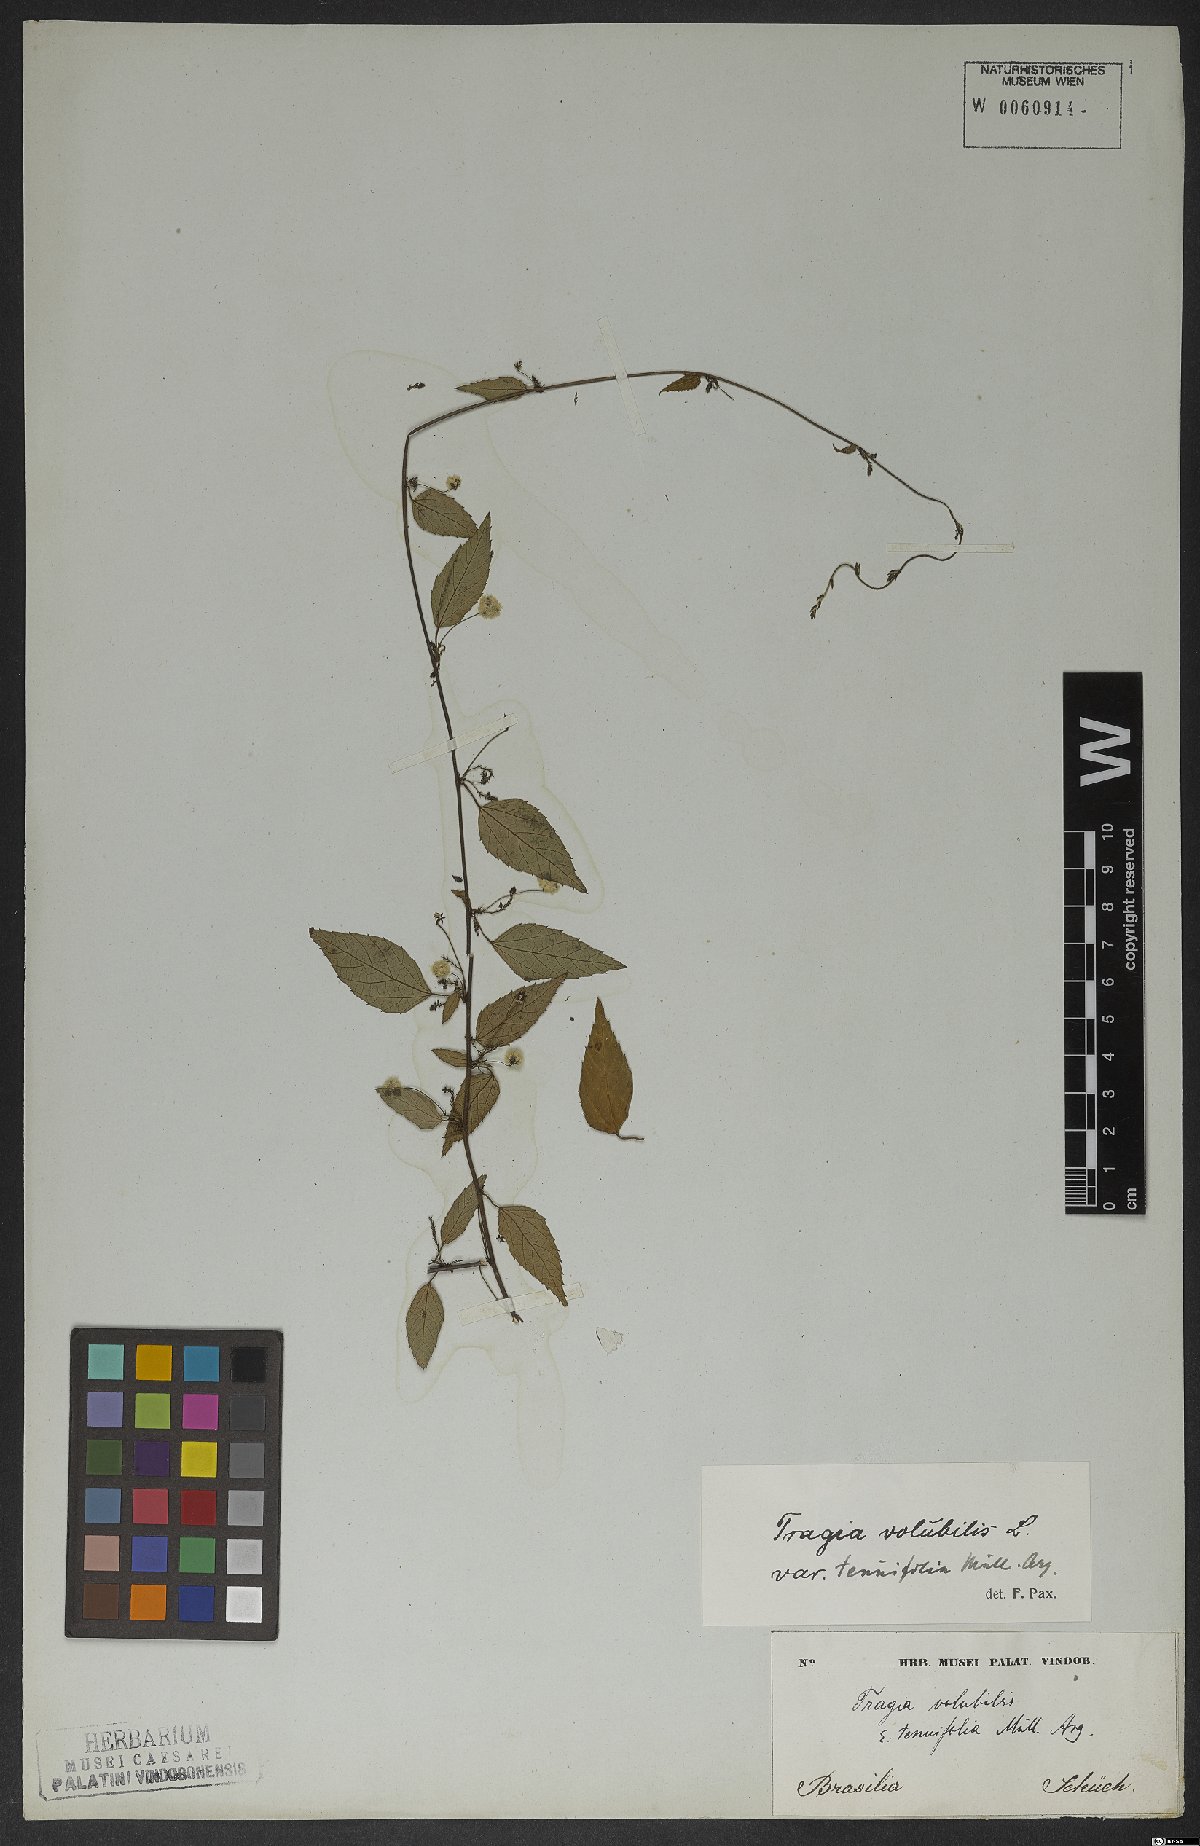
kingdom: Plantae
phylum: Tracheophyta
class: Magnoliopsida
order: Malpighiales
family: Euphorbiaceae
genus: Tragia
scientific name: Tragia volubilis
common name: Twining cow-itch
